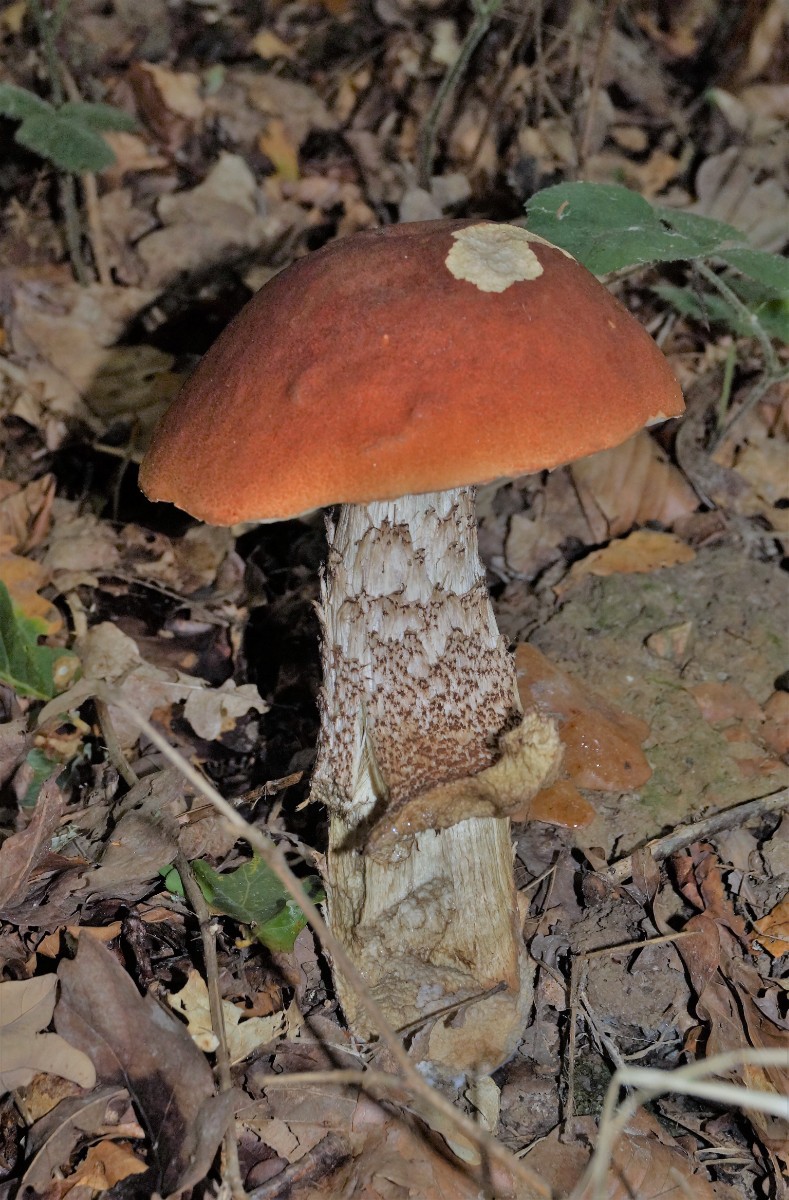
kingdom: Fungi
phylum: Basidiomycota
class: Agaricomycetes
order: Boletales
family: Boletaceae
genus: Leccinum
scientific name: Leccinum aurantiacum
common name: rustrød skælrørhat
